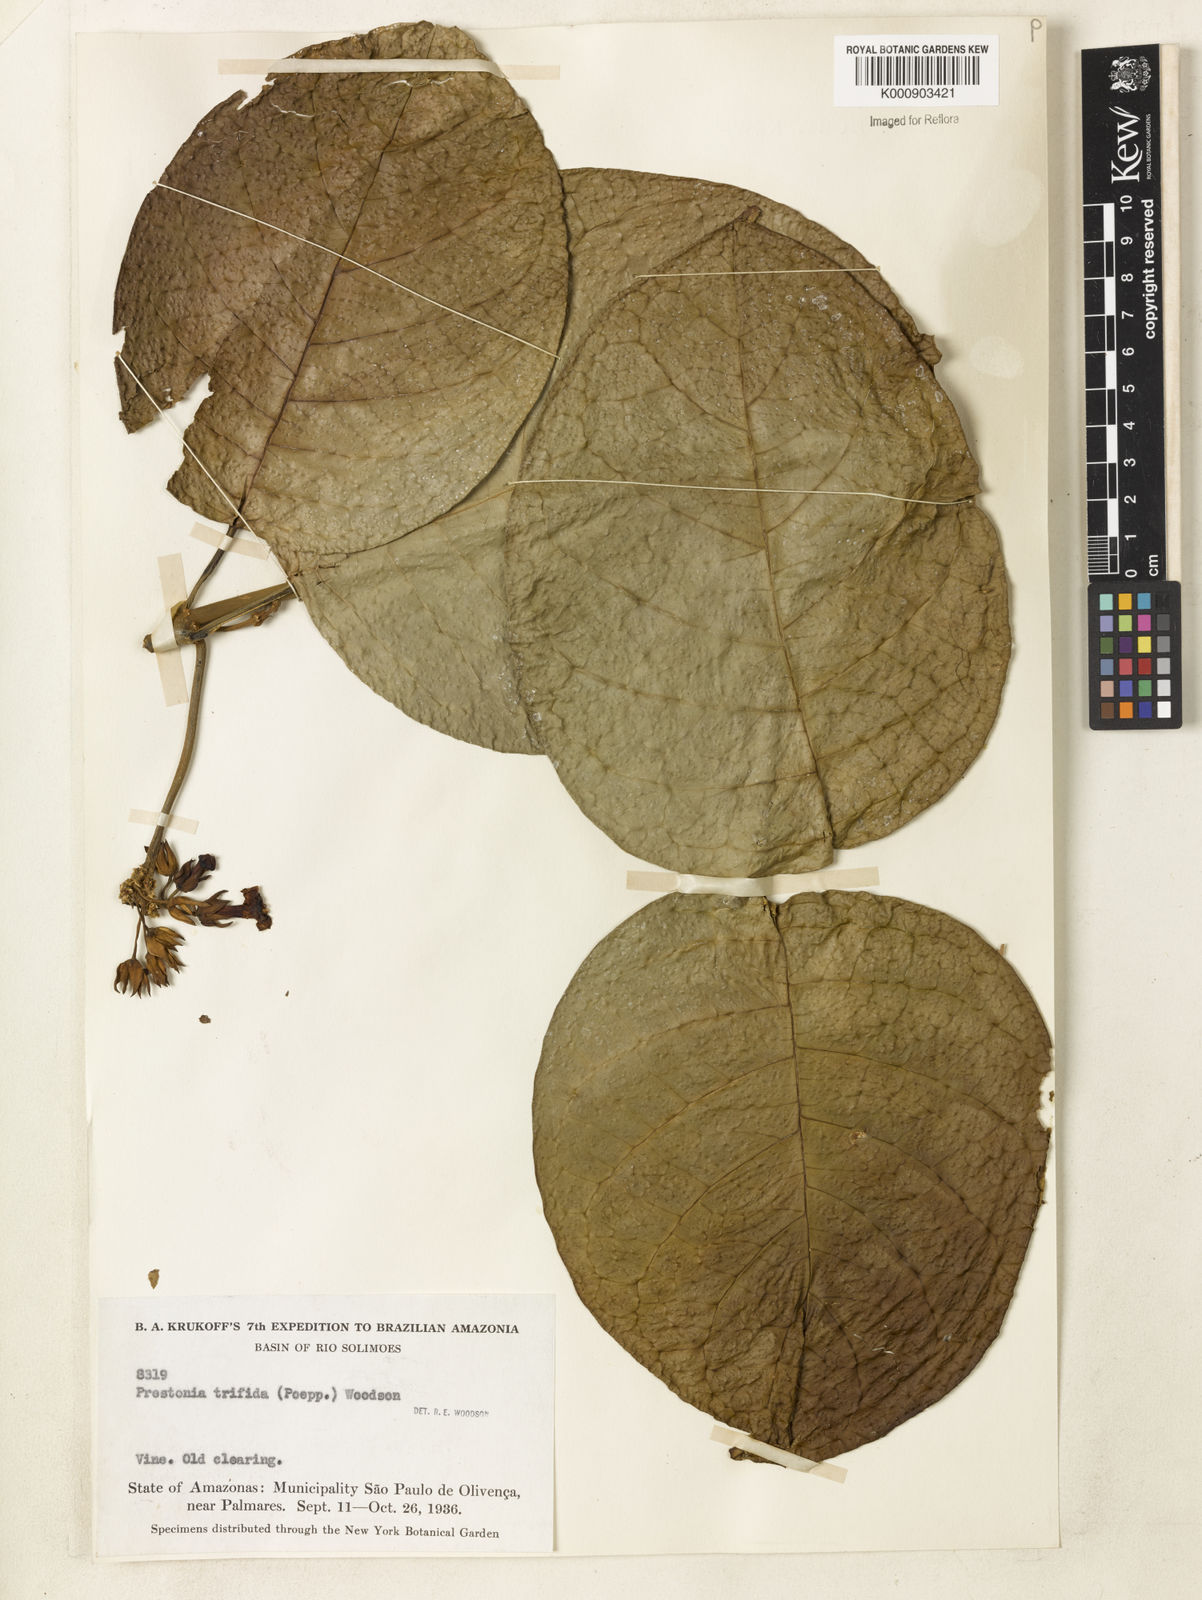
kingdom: Plantae
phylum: Tracheophyta
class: Magnoliopsida
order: Gentianales
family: Apocynaceae
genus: Prestonia
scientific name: Prestonia trifida
